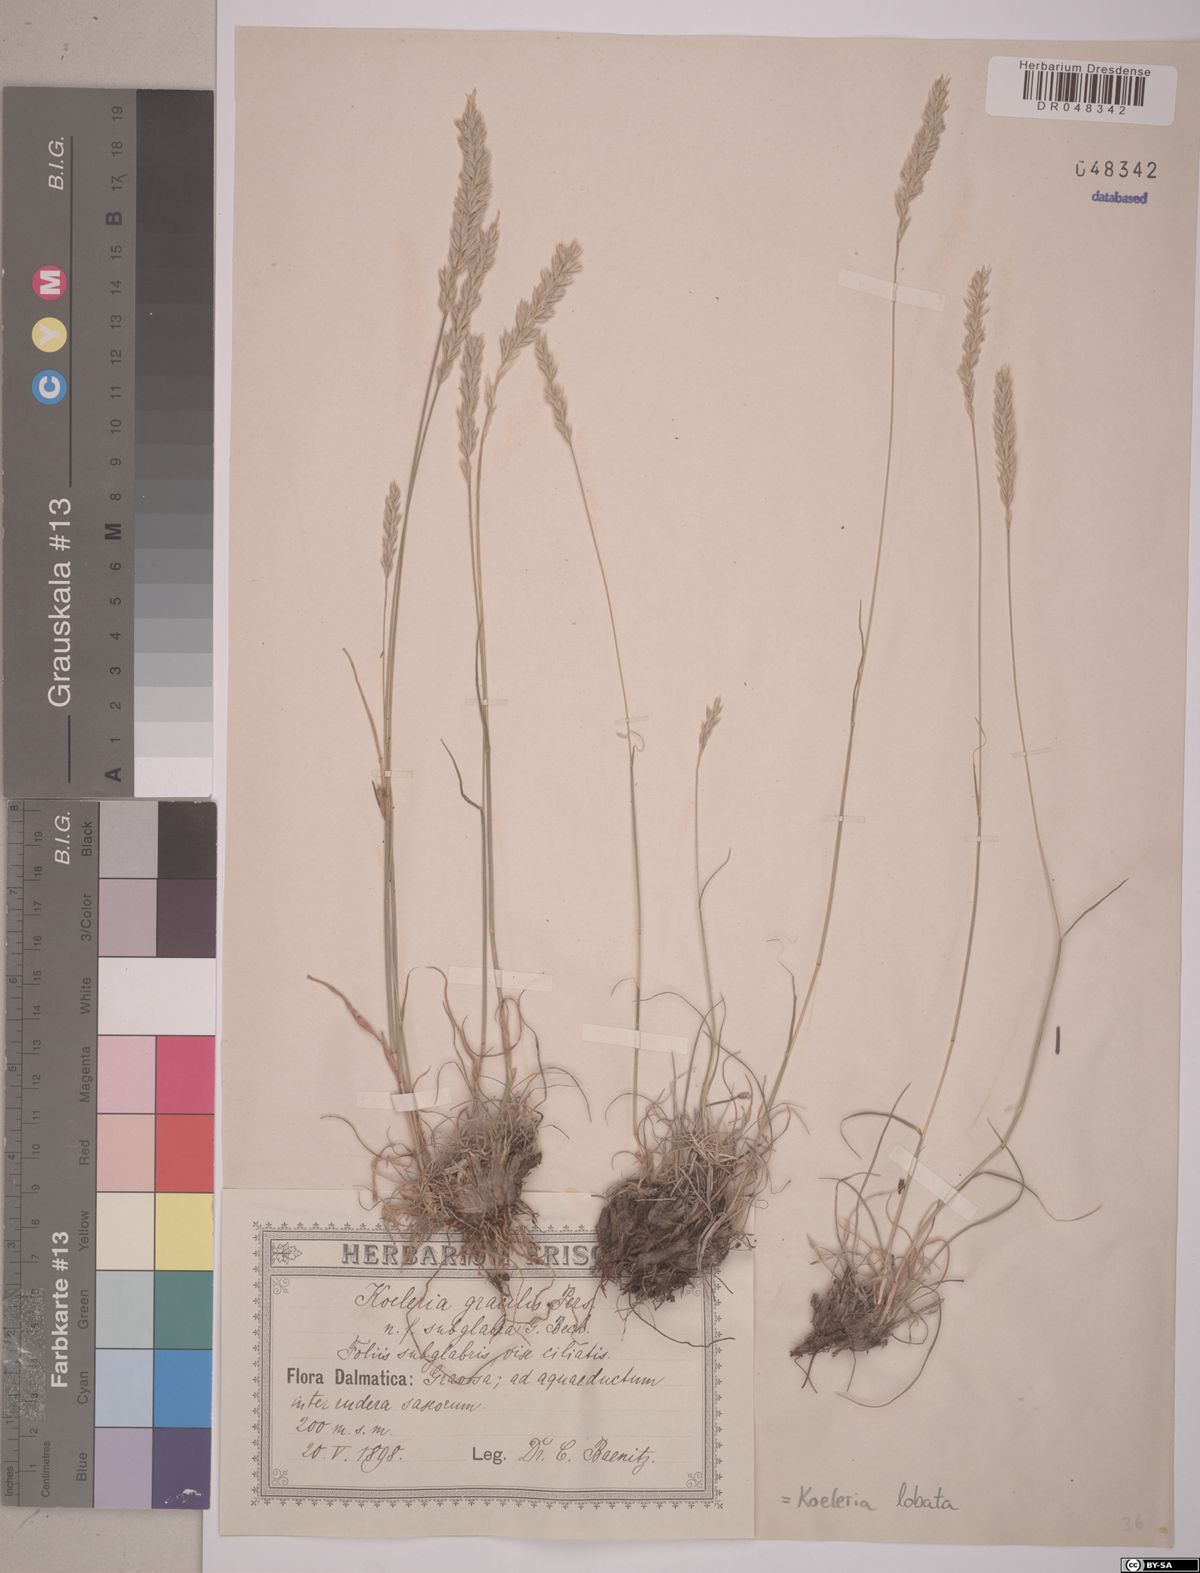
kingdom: Plantae
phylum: Tracheophyta
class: Liliopsida
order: Poales
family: Poaceae
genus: Koeleria
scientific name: Koeleria brevis
